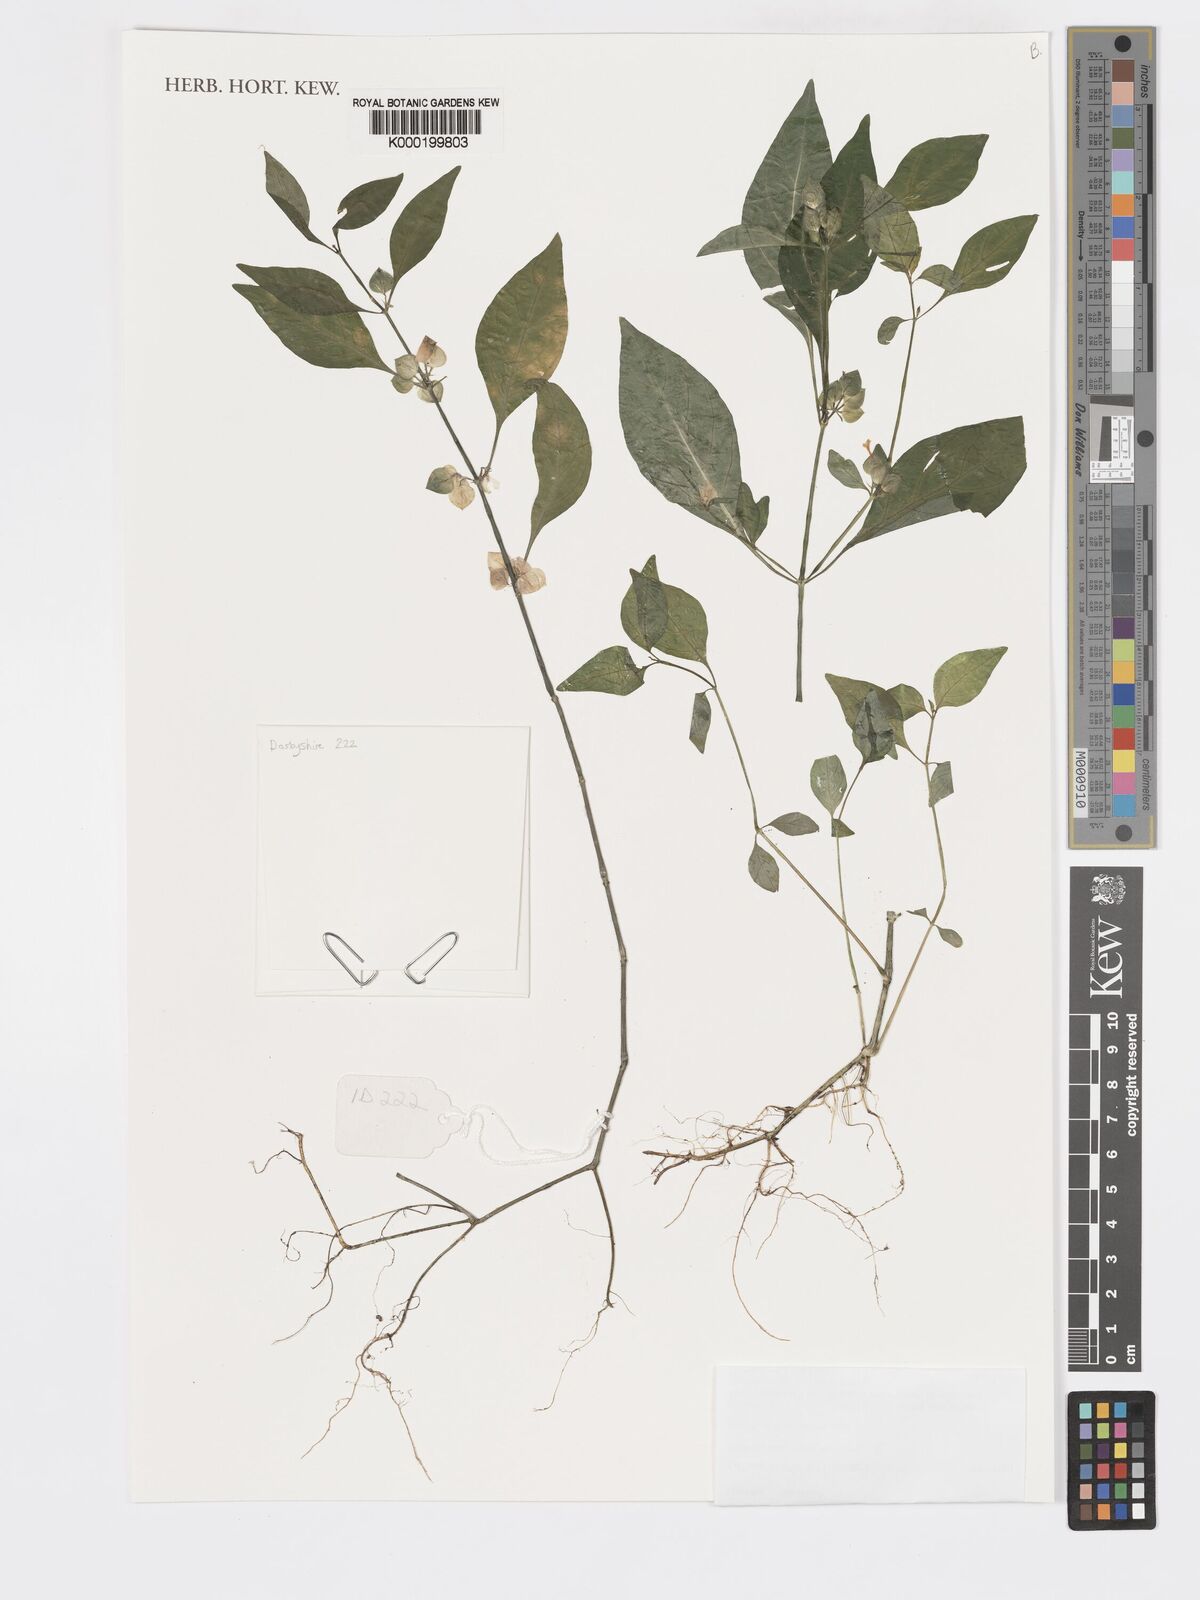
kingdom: Plantae
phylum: Tracheophyta
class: Magnoliopsida
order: Lamiales
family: Acanthaceae
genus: Dicliptera
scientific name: Dicliptera elliotii
